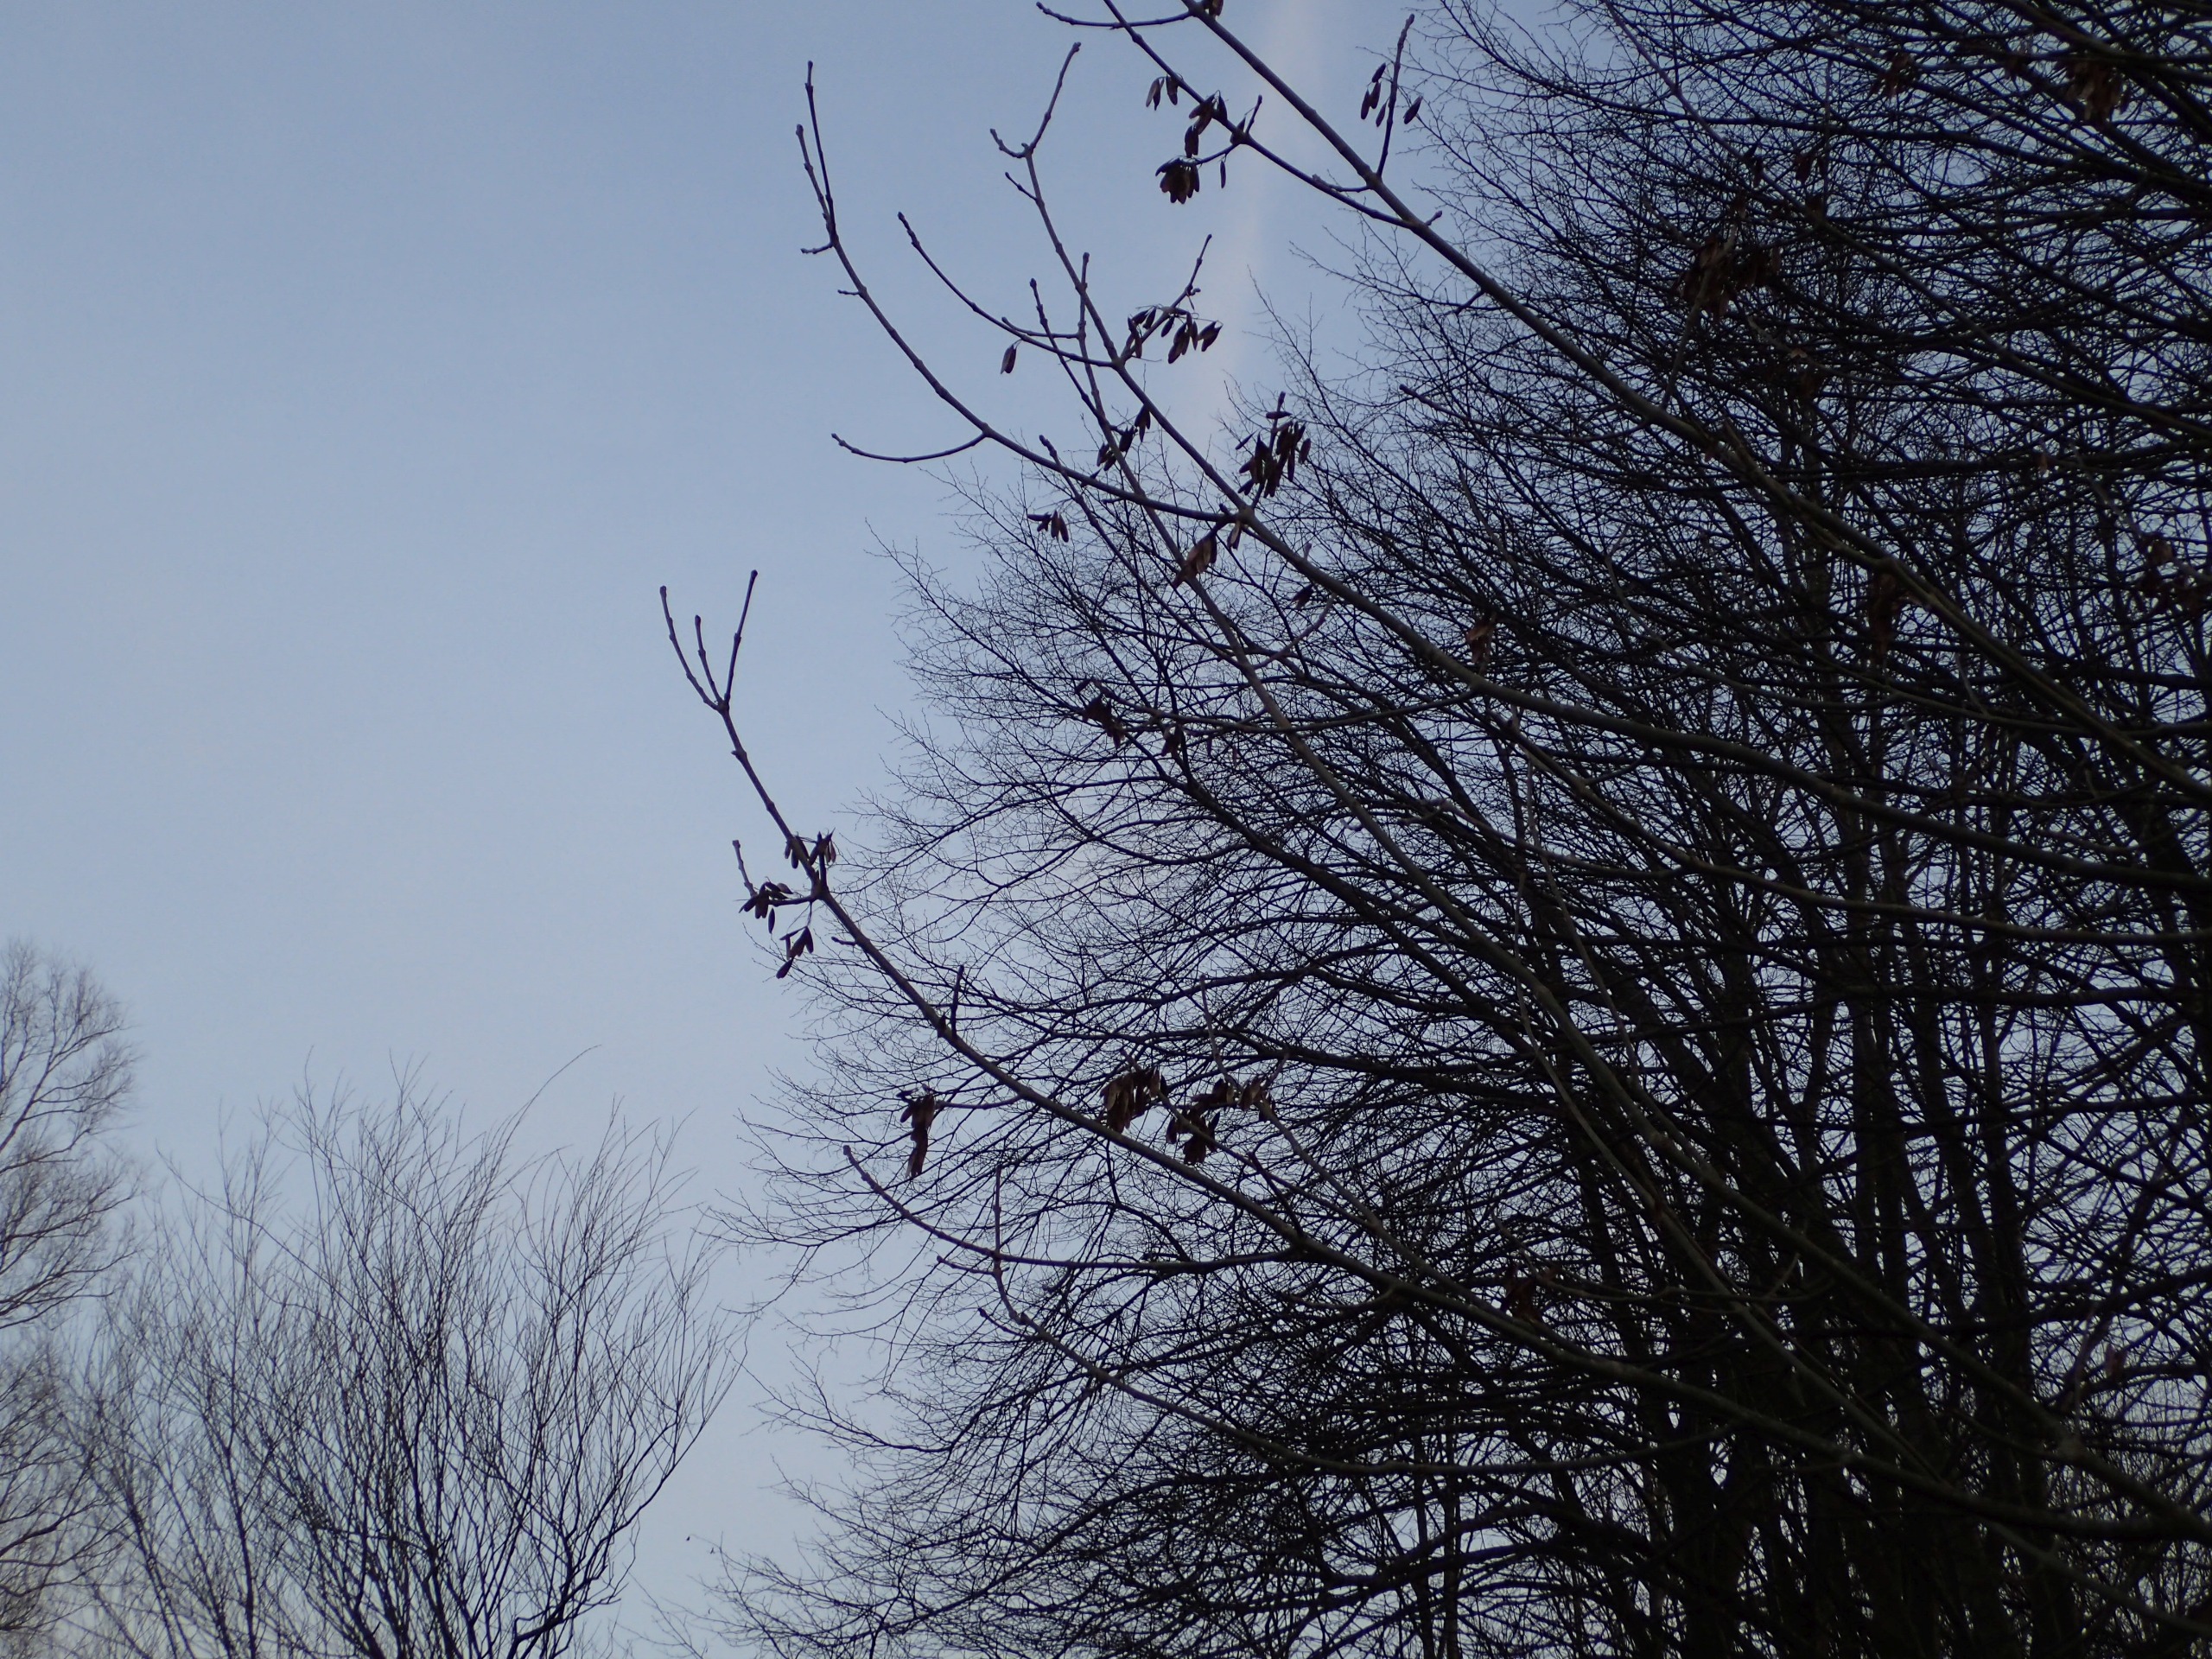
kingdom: Plantae
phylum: Tracheophyta
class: Magnoliopsida
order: Lamiales
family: Oleaceae
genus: Fraxinus
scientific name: Fraxinus excelsior
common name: Ask
